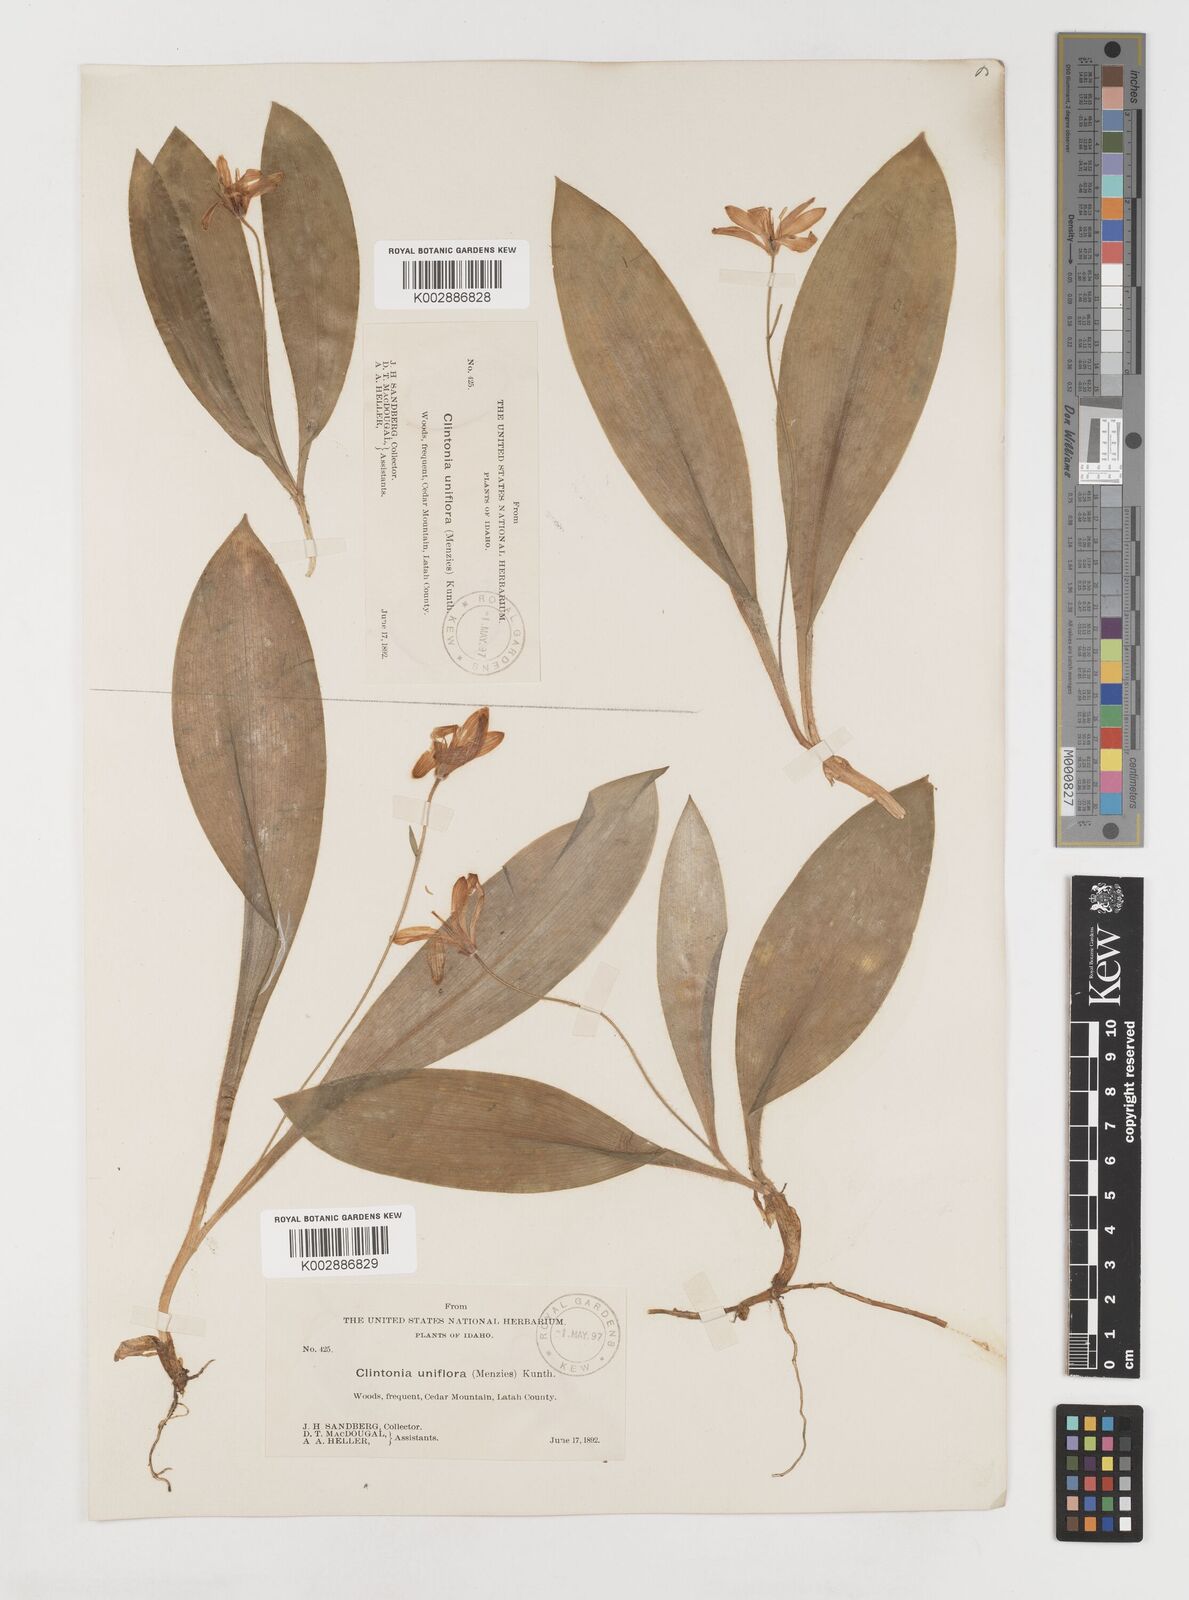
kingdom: Plantae
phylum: Tracheophyta
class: Liliopsida
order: Liliales
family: Liliaceae
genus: Clintonia
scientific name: Clintonia uniflora
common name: Queen's cup
